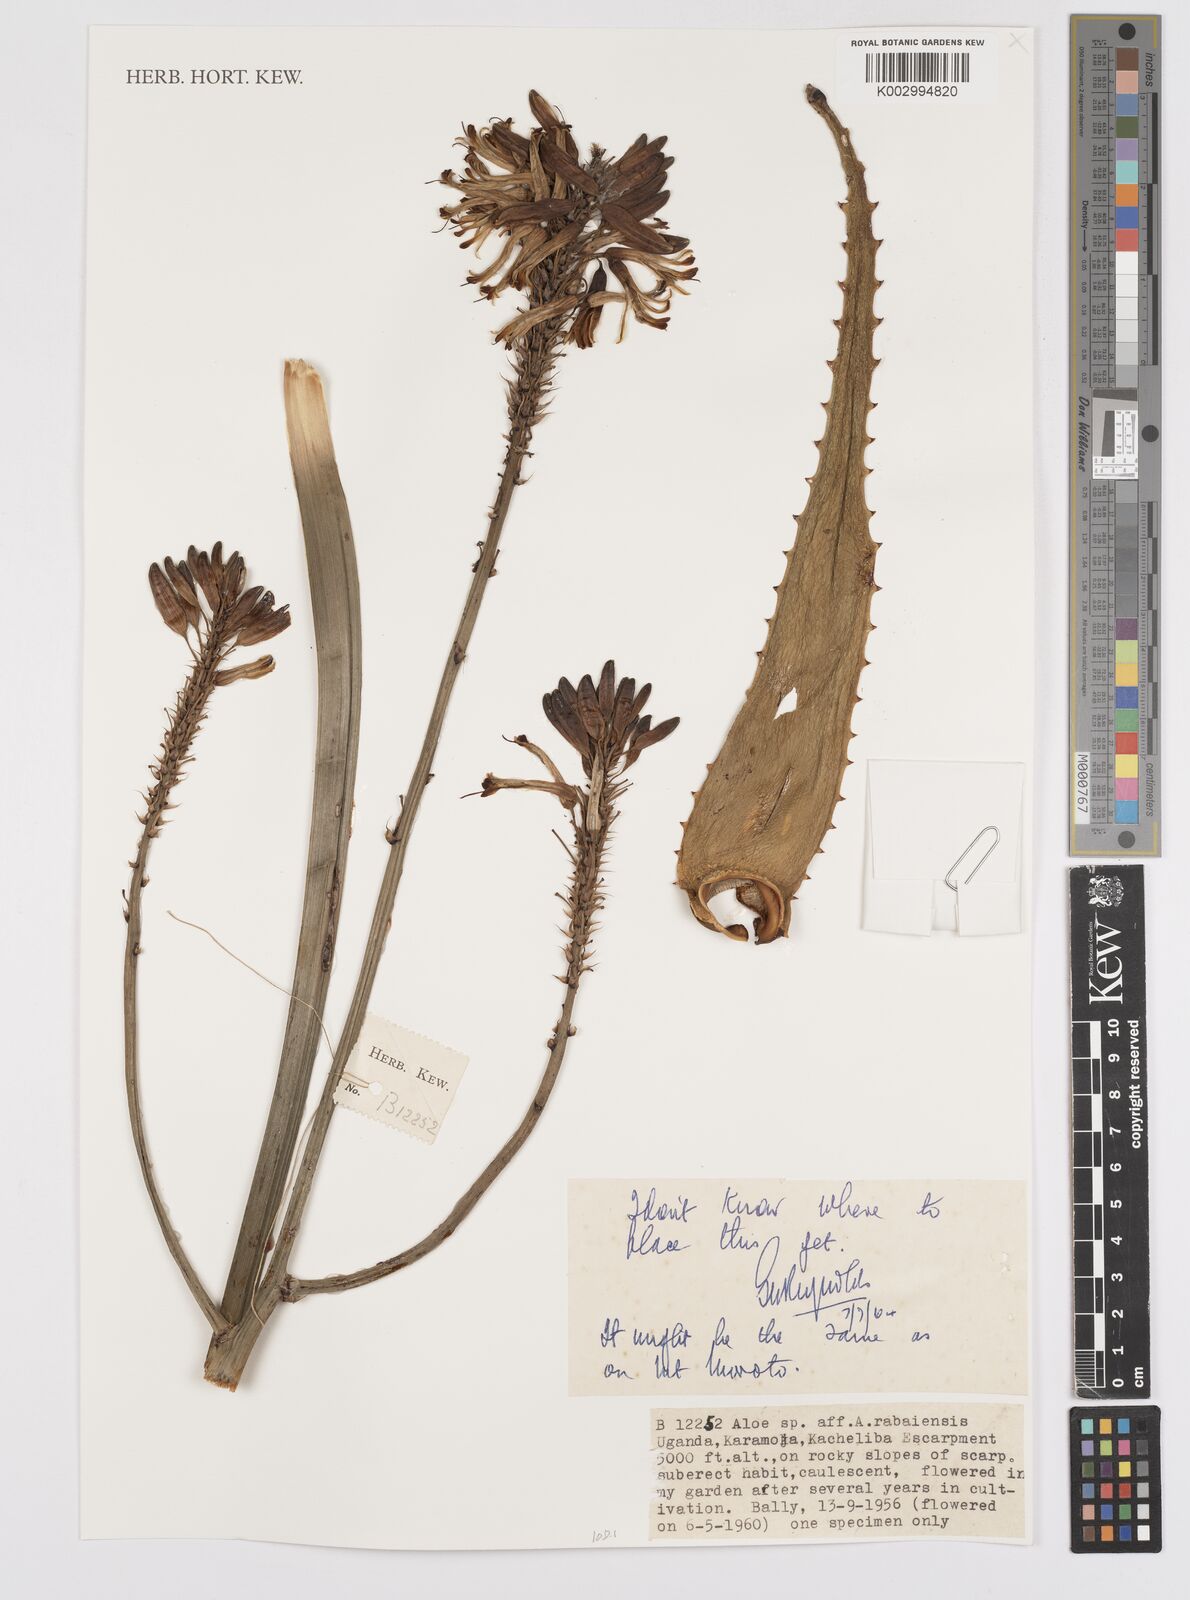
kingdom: Plantae
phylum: Tracheophyta
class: Liliopsida
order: Asparagales
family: Asphodelaceae
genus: Aloe
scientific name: Aloe rabaiensis
